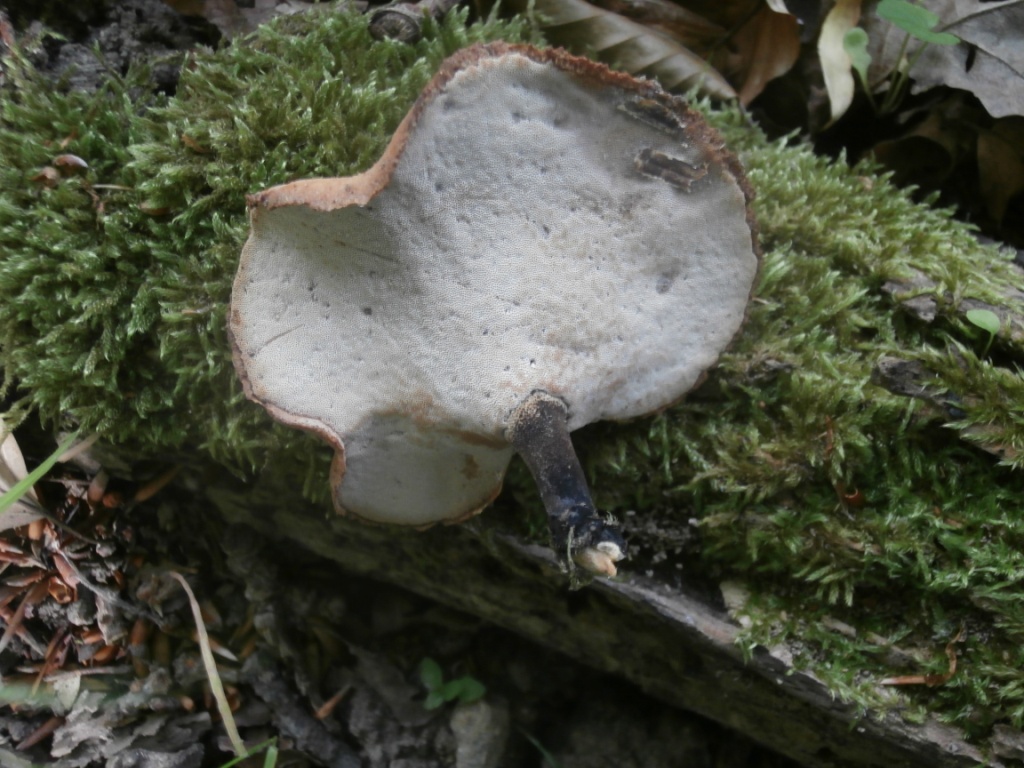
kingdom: Fungi
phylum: Basidiomycota
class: Agaricomycetes
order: Polyporales
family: Polyporaceae
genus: Cerioporus
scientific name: Cerioporus varius
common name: foranderlig stilkporesvamp
